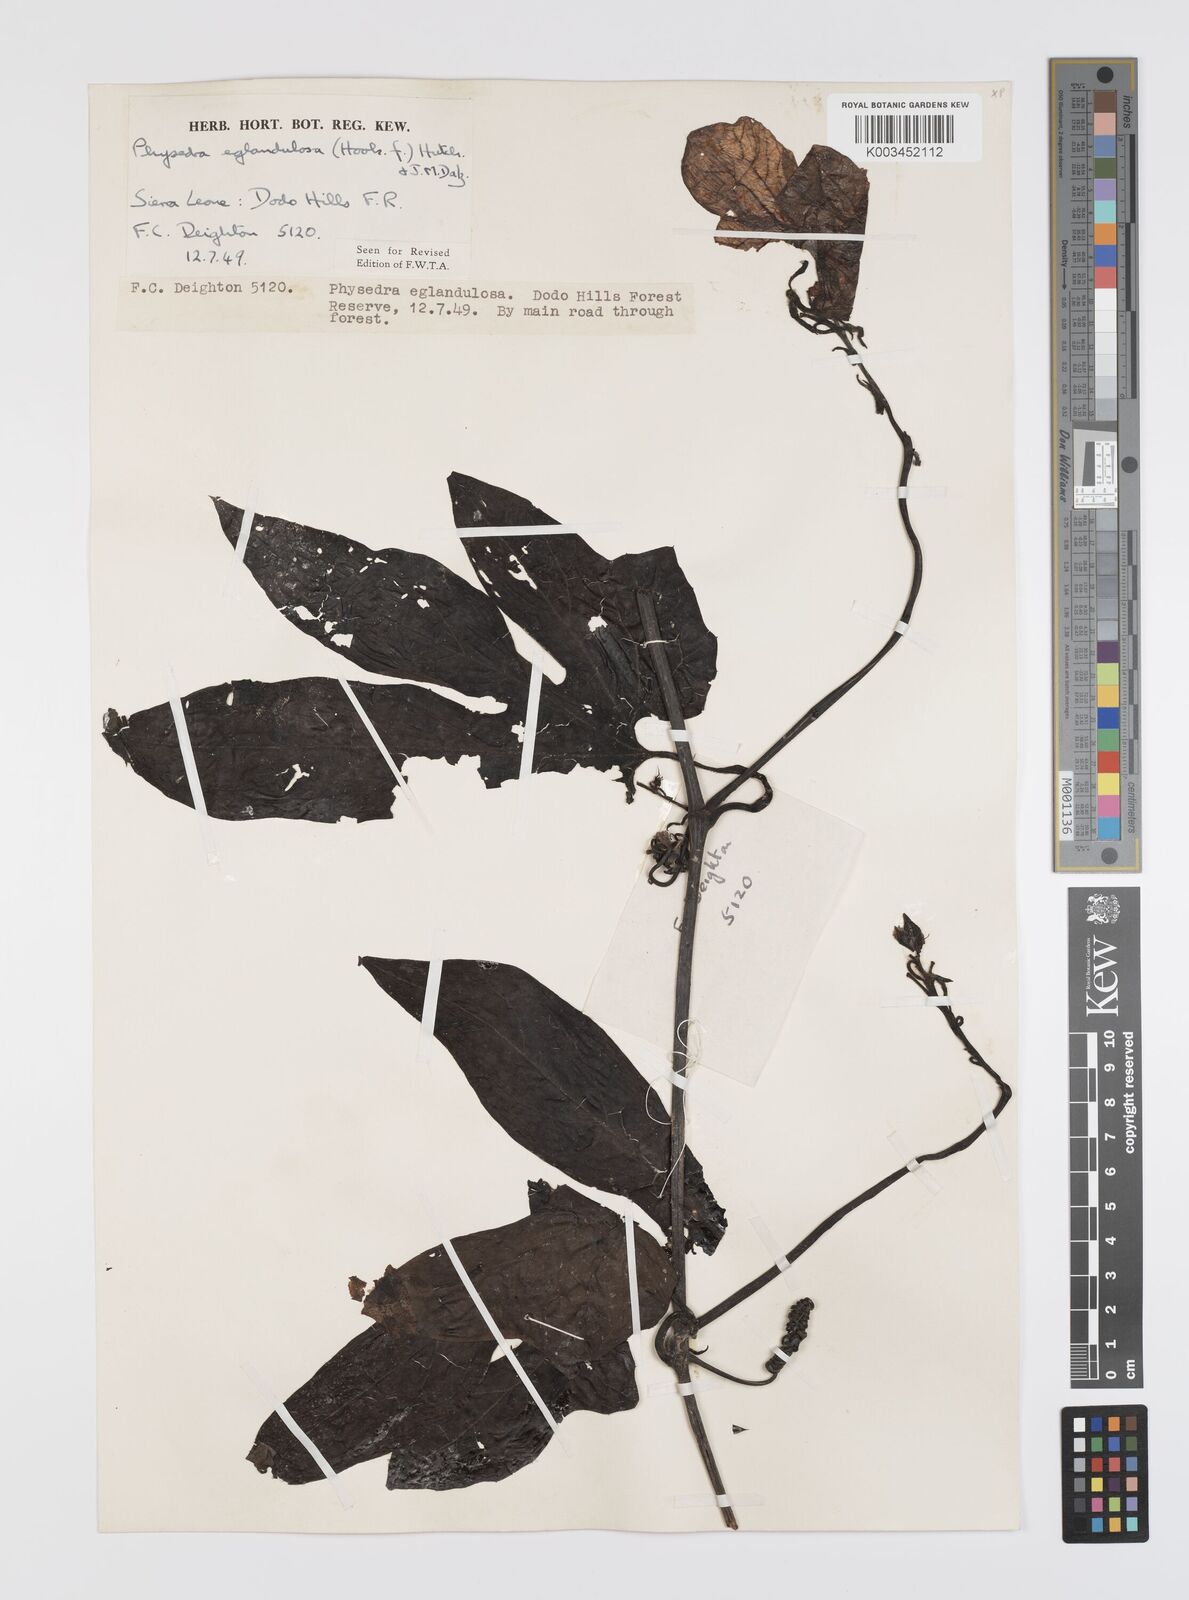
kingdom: Plantae
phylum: Tracheophyta
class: Magnoliopsida
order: Cucurbitales
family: Cucurbitaceae
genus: Ruthalicia
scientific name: Ruthalicia eglandulosa
